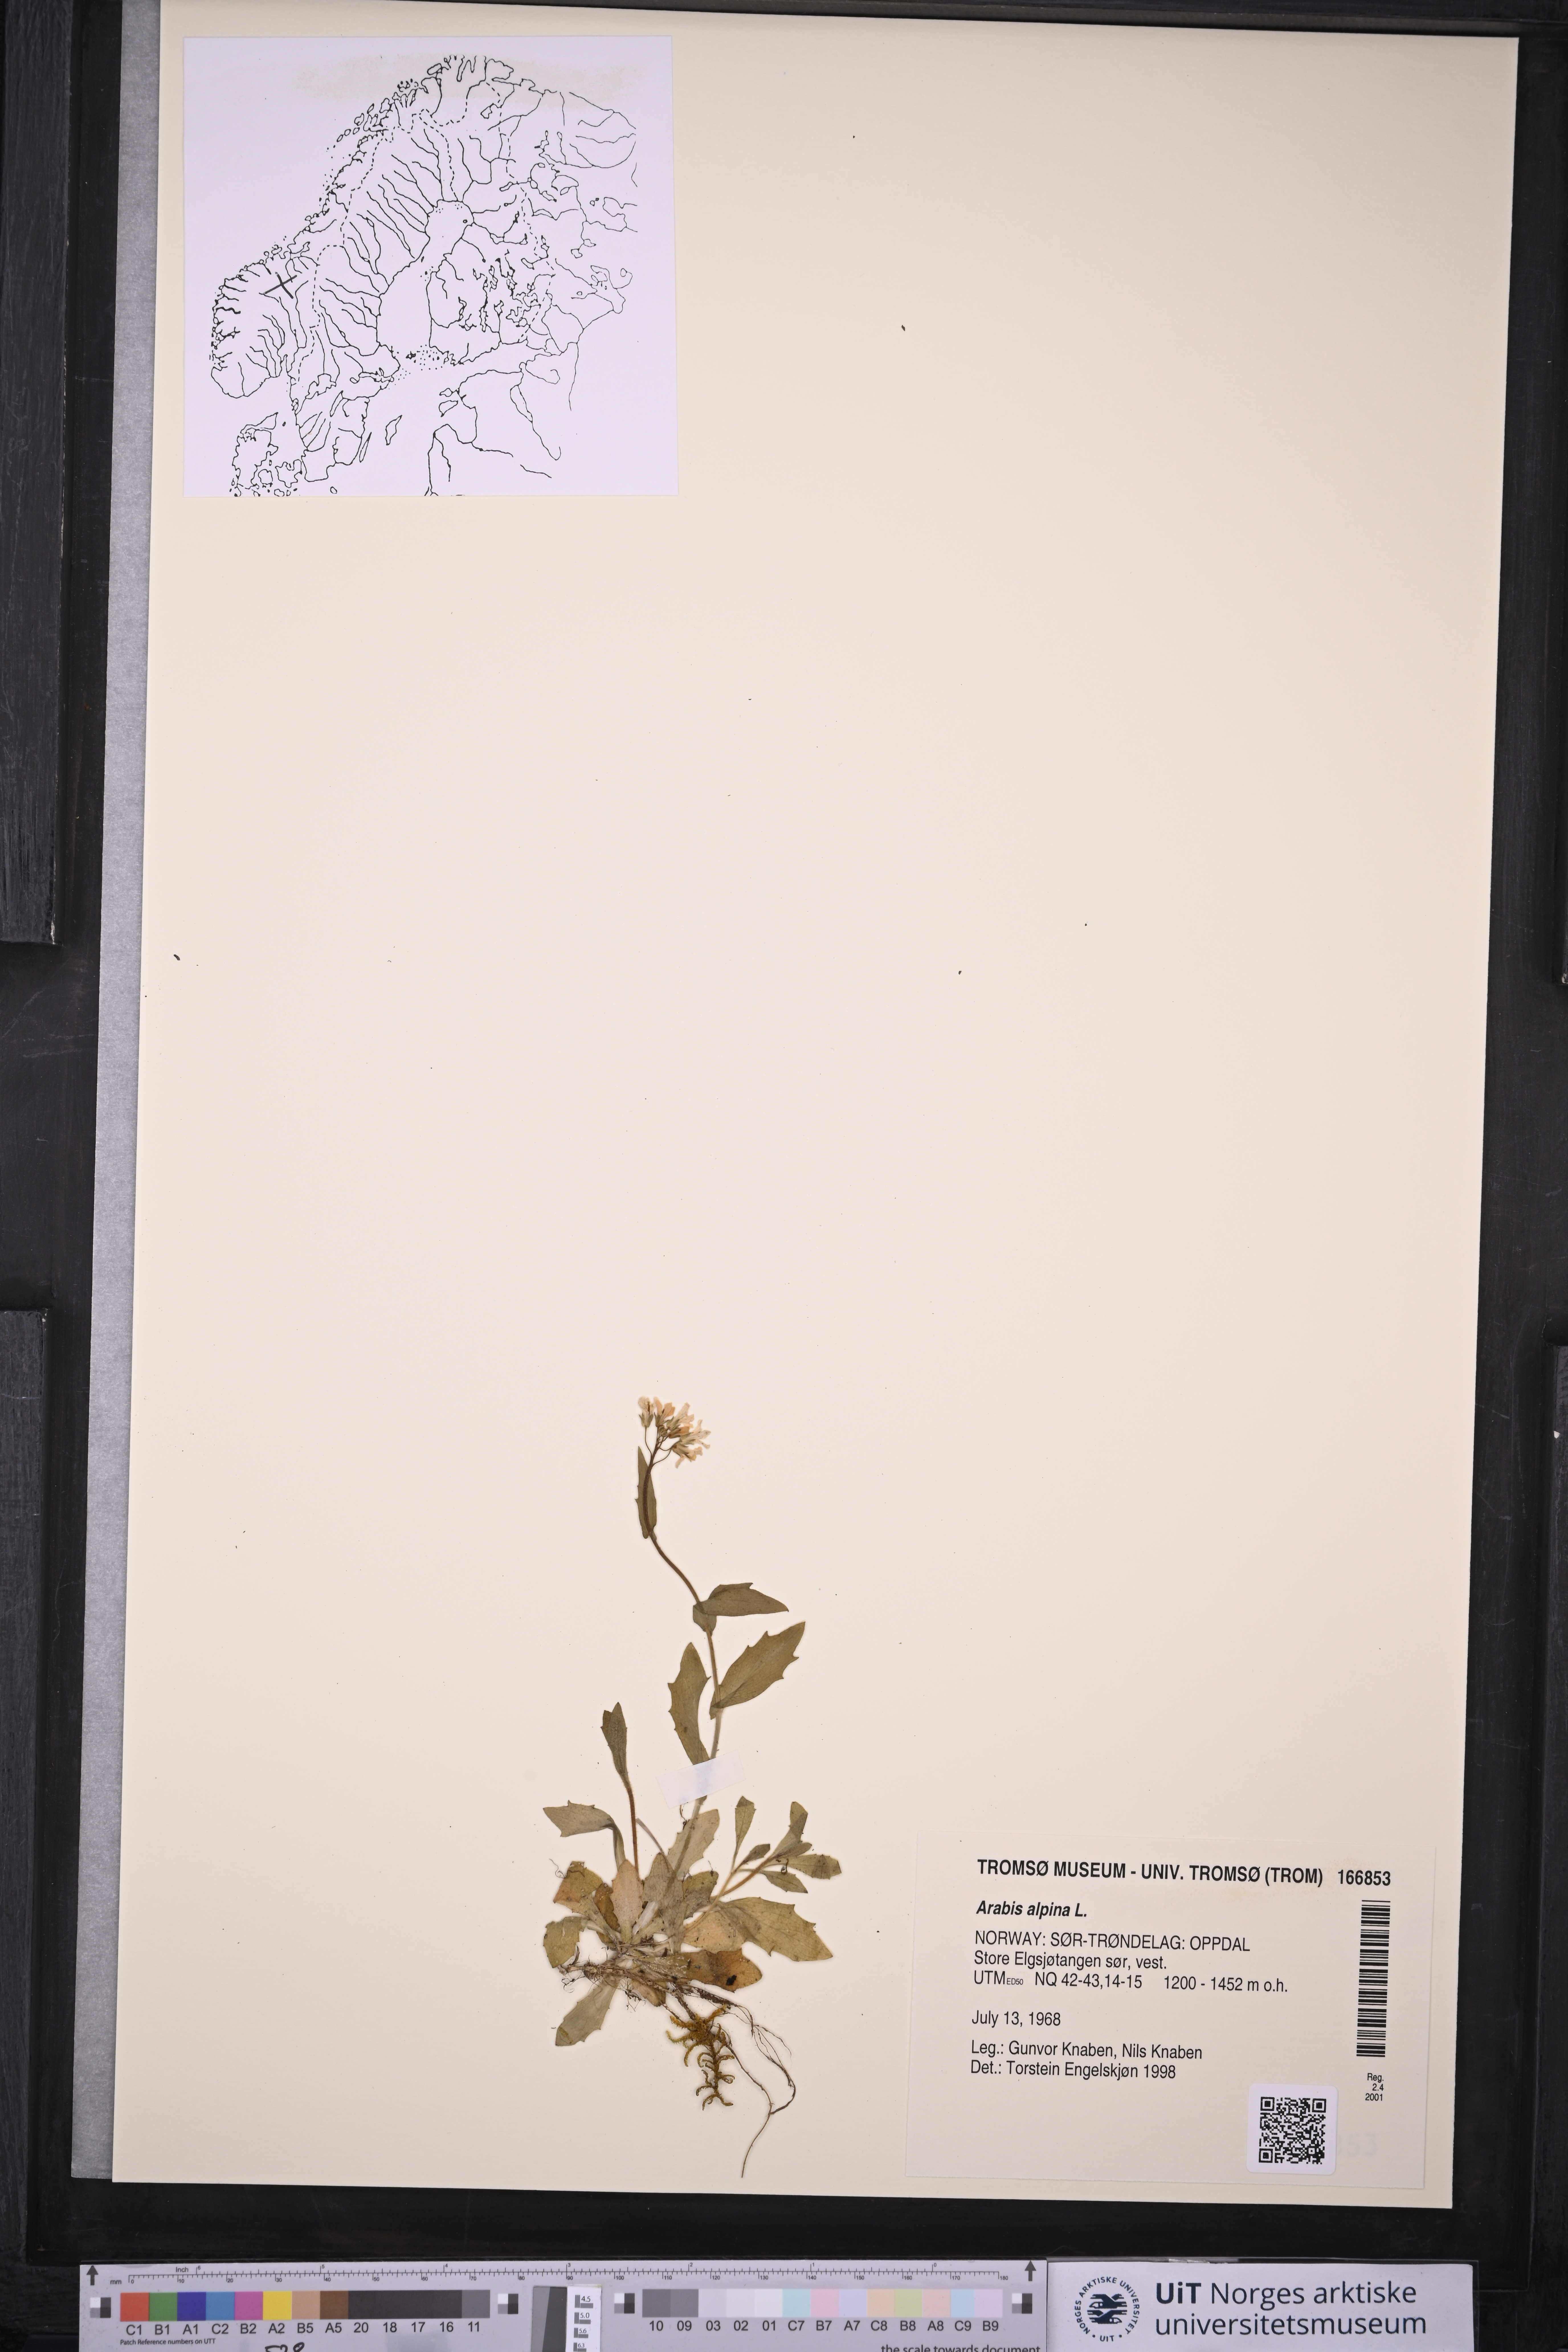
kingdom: Plantae
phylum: Tracheophyta
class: Magnoliopsida
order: Brassicales
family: Brassicaceae
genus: Arabis
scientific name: Arabis alpina
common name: Alpine rock-cress
